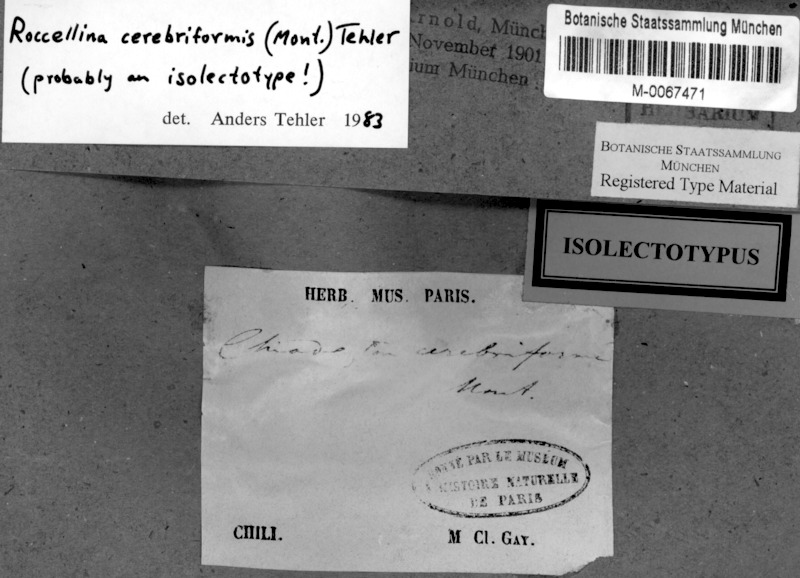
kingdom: Fungi
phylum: Ascomycota
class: Arthoniomycetes
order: Arthoniales
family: Roccellaceae
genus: Roccellina
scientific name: Roccellina cerebriformis
